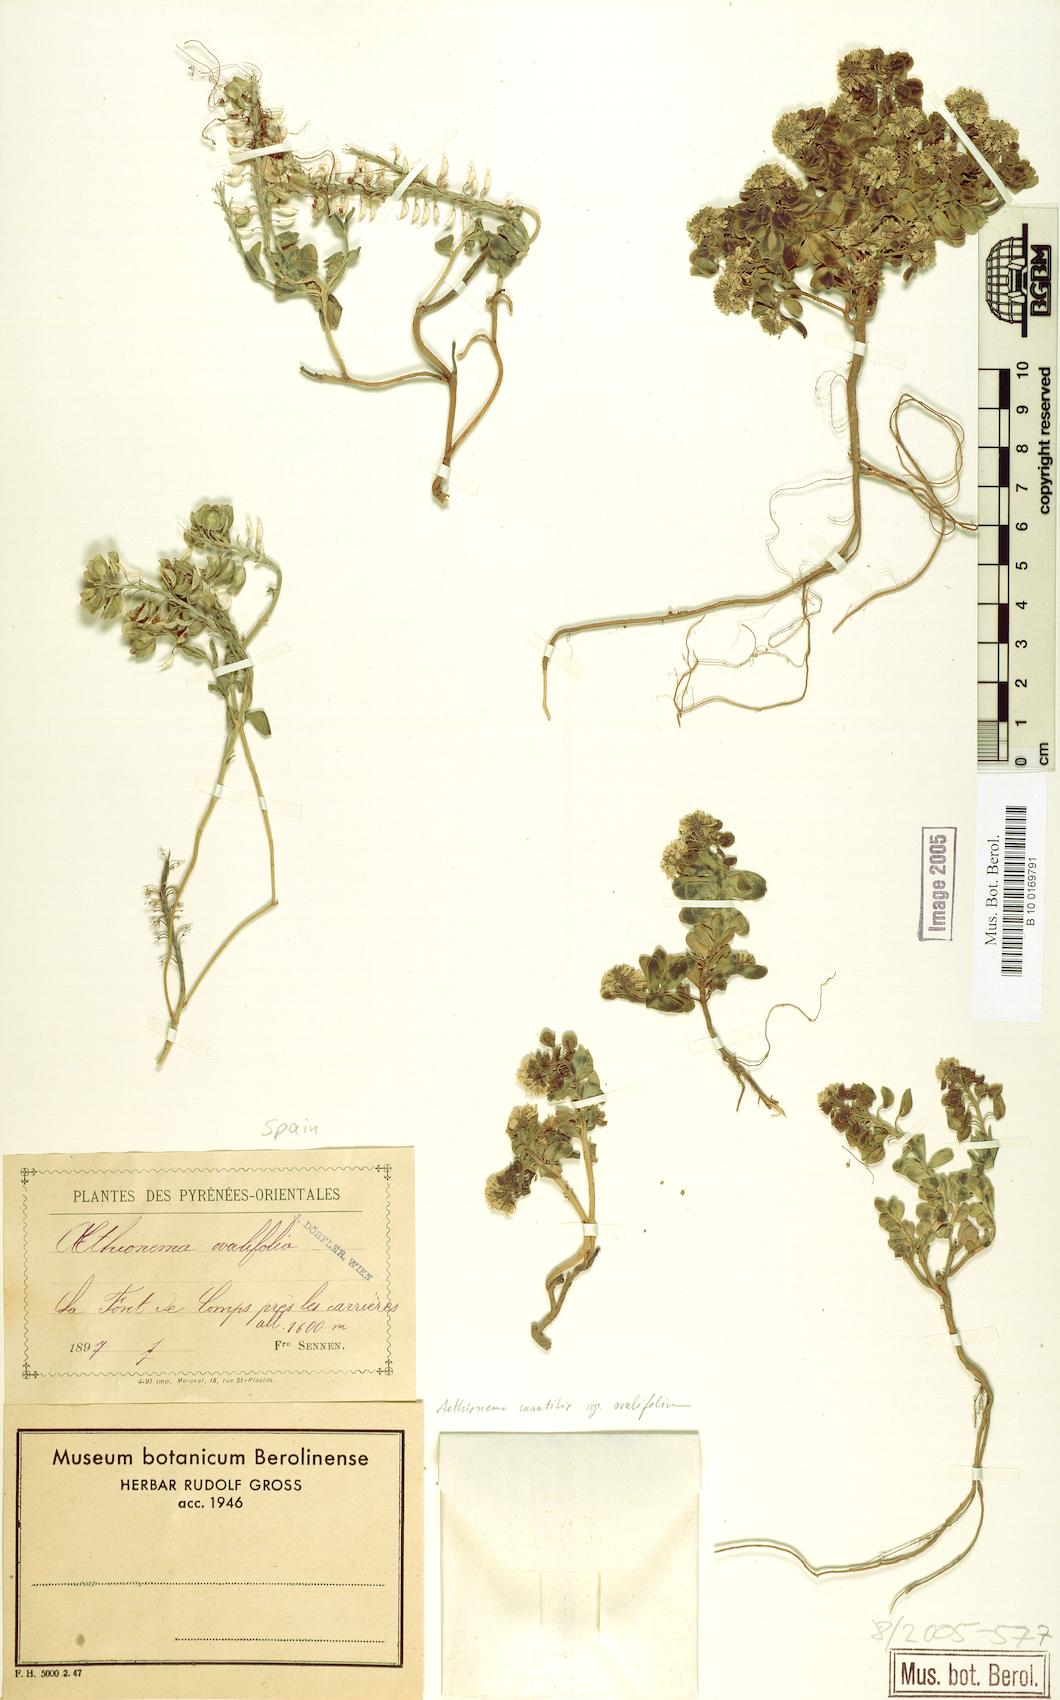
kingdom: Plantae
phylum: Tracheophyta
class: Magnoliopsida
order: Brassicales
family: Brassicaceae
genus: Aethionema
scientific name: Aethionema saxatile
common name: Burnt candytuft
